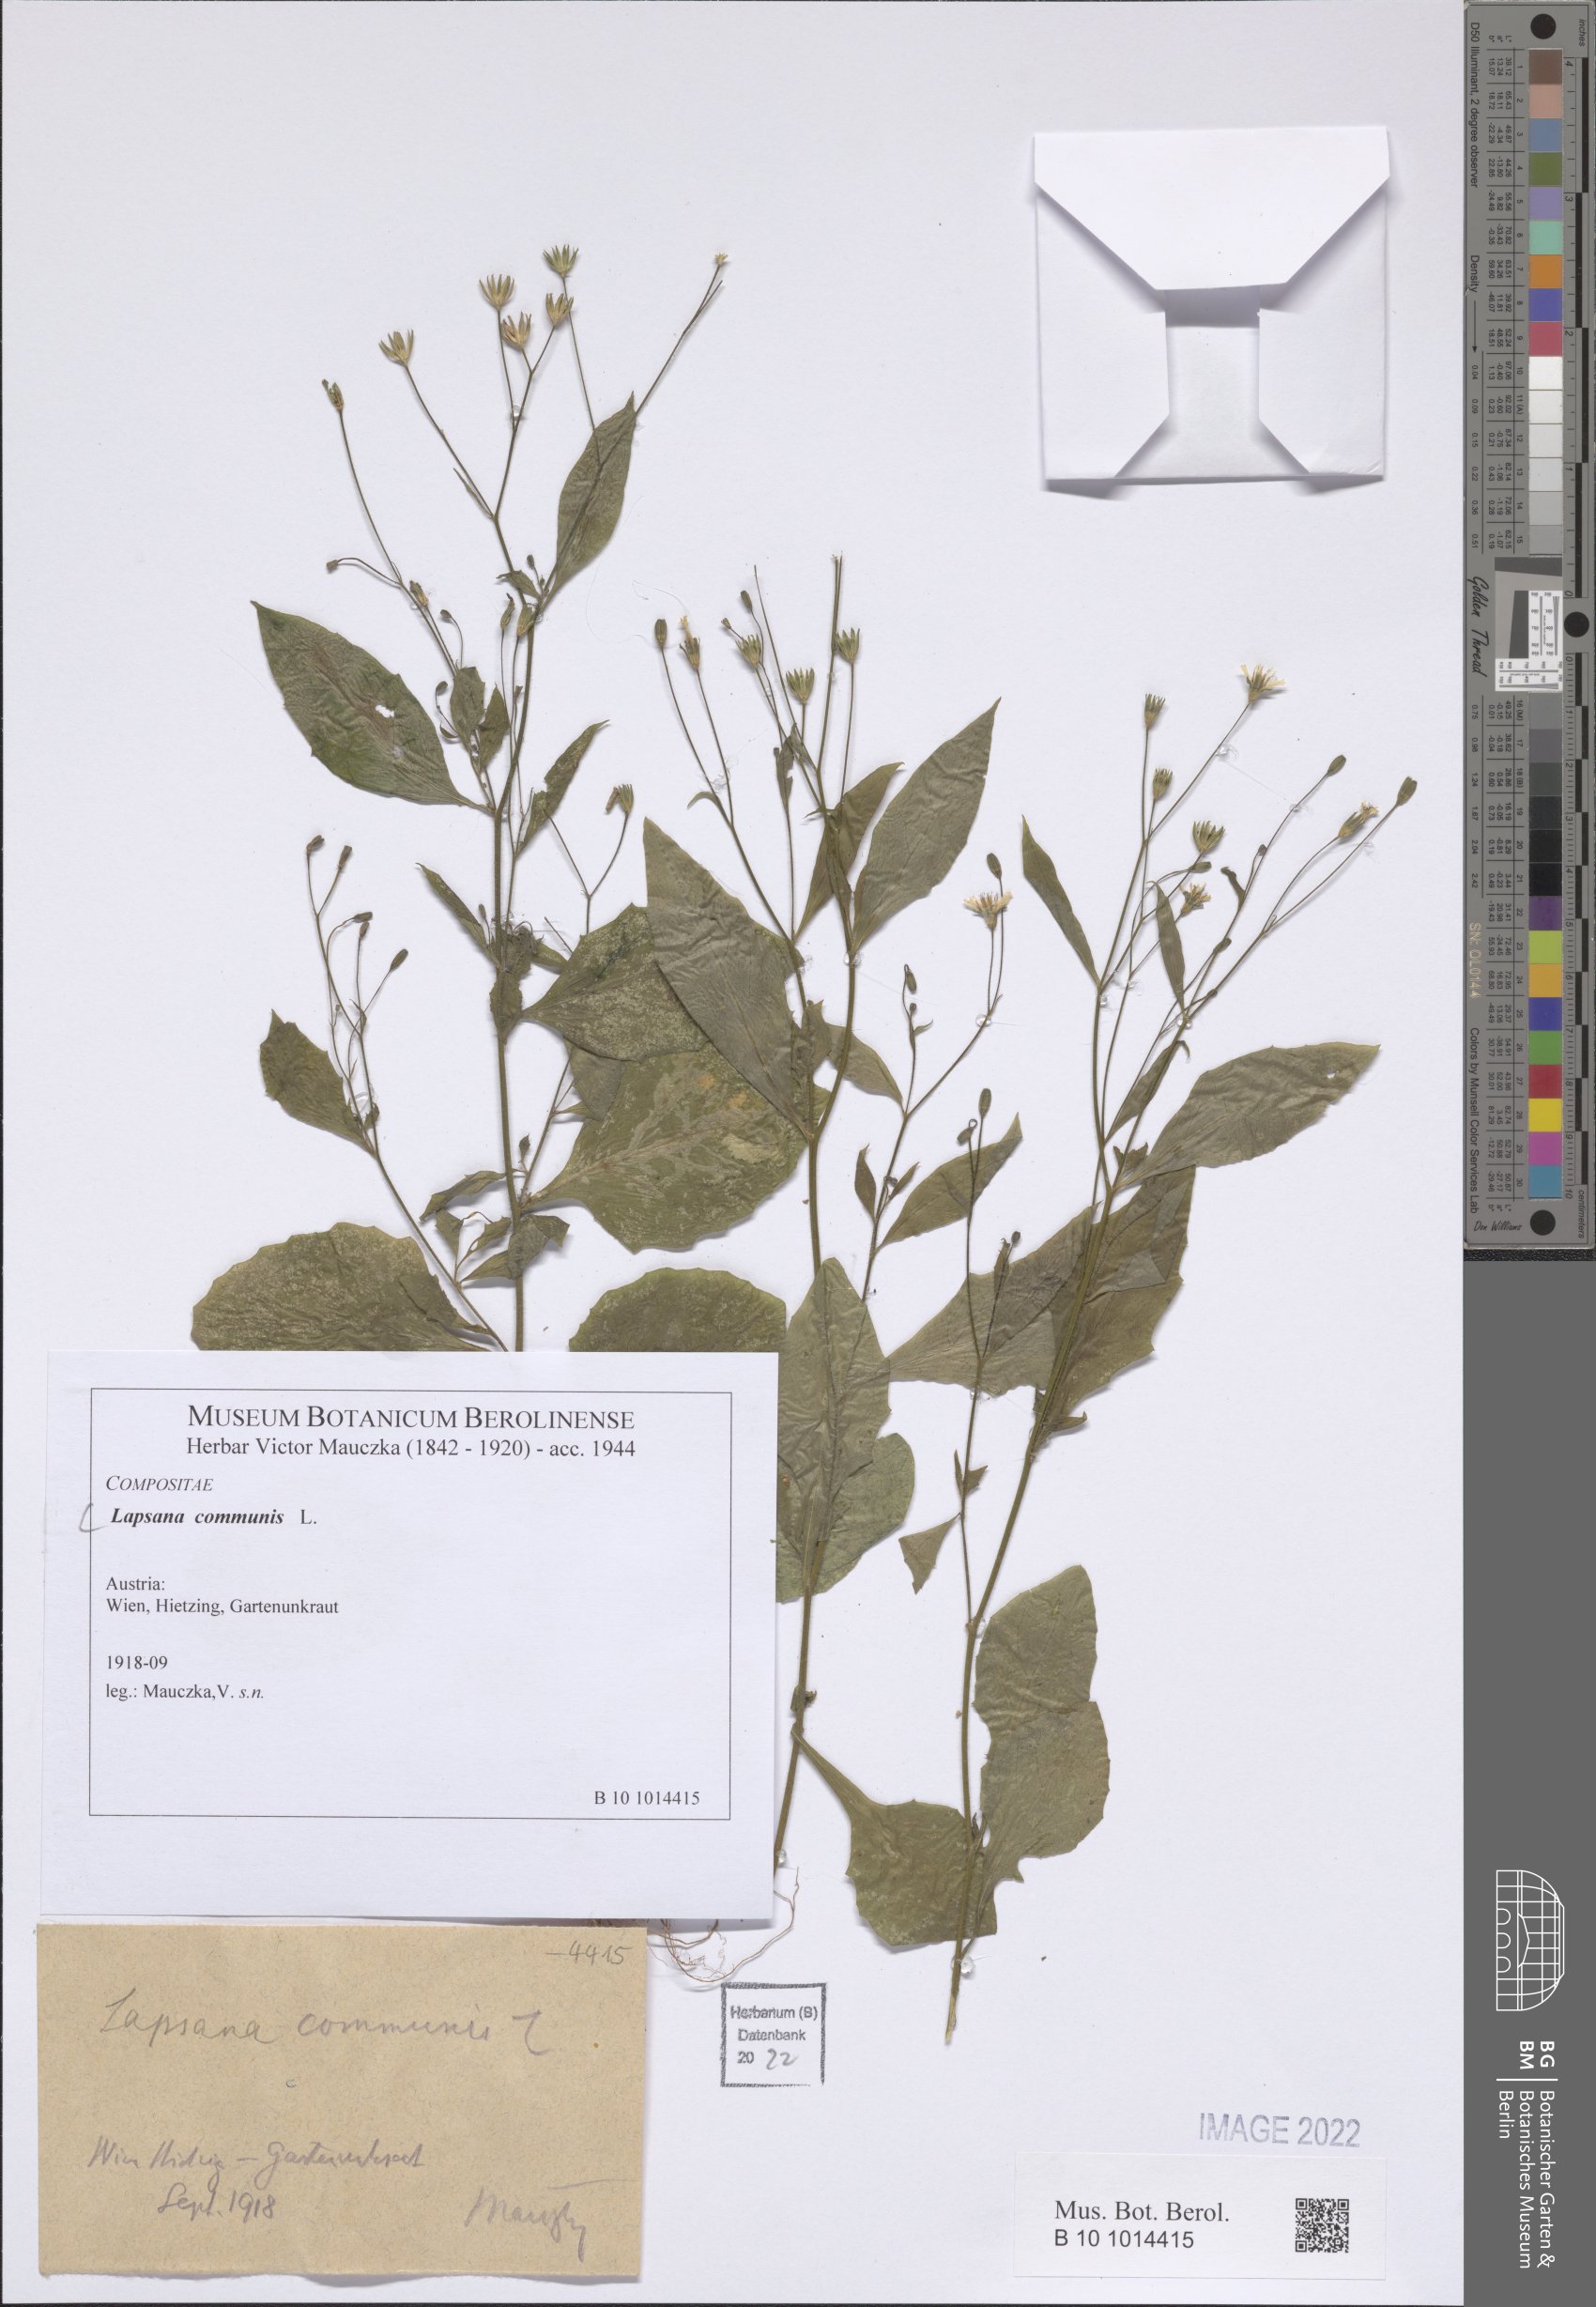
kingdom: Plantae
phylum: Tracheophyta
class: Magnoliopsida
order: Asterales
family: Asteraceae
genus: Lapsana
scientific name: Lapsana communis
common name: Nipplewort
